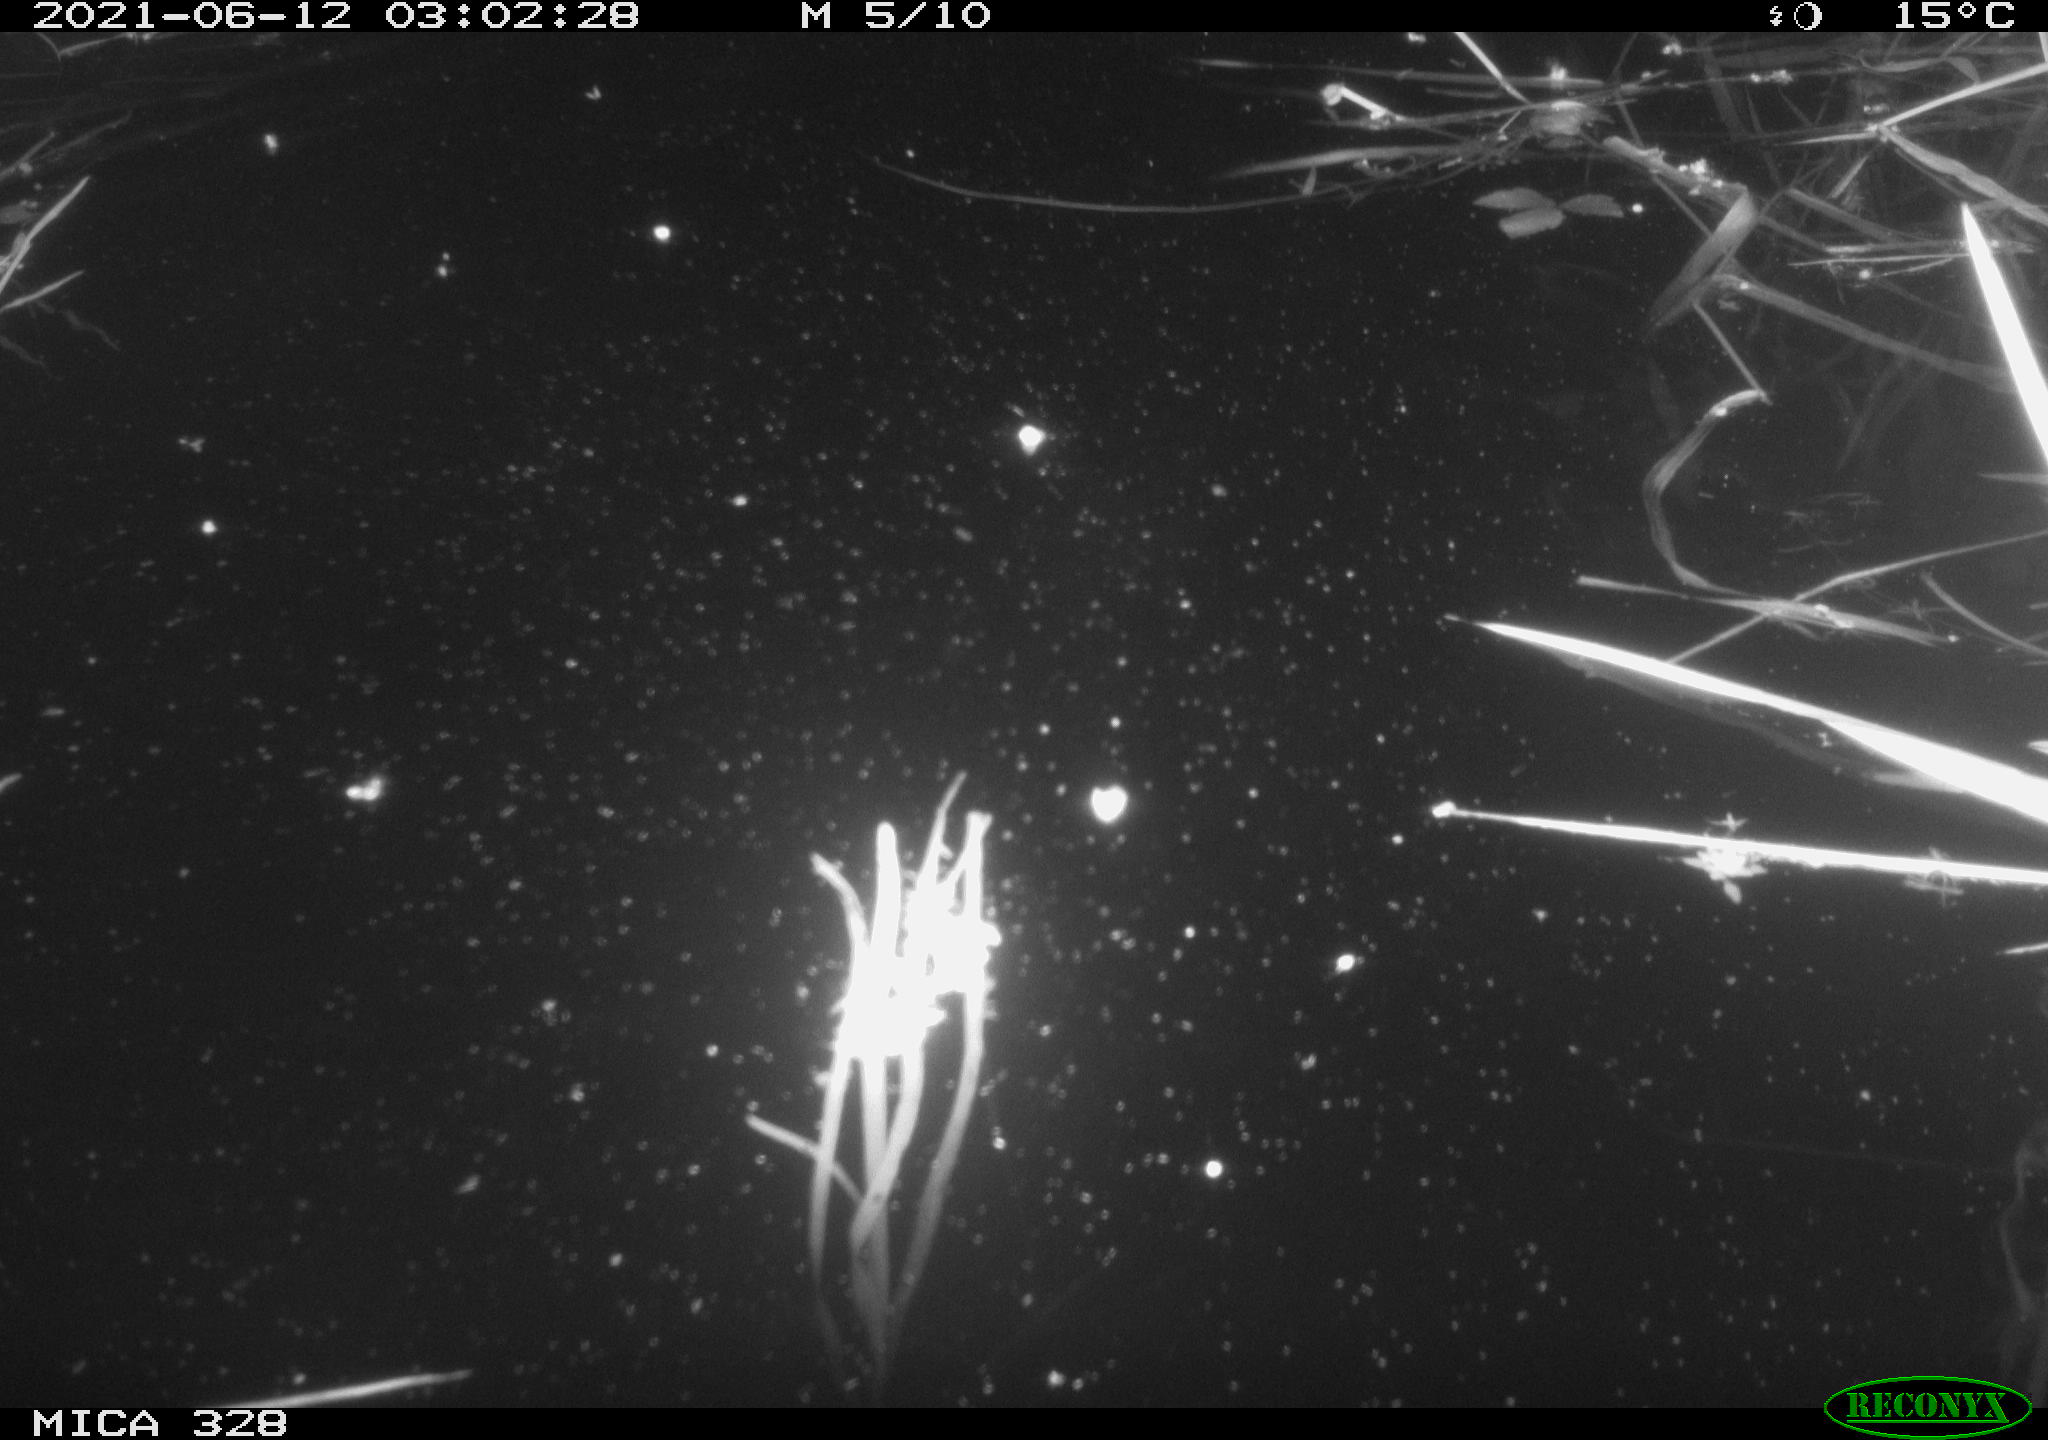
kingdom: Animalia
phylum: Chordata
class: Mammalia
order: Rodentia
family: Cricetidae
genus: Ondatra
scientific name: Ondatra zibethicus
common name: Muskrat
